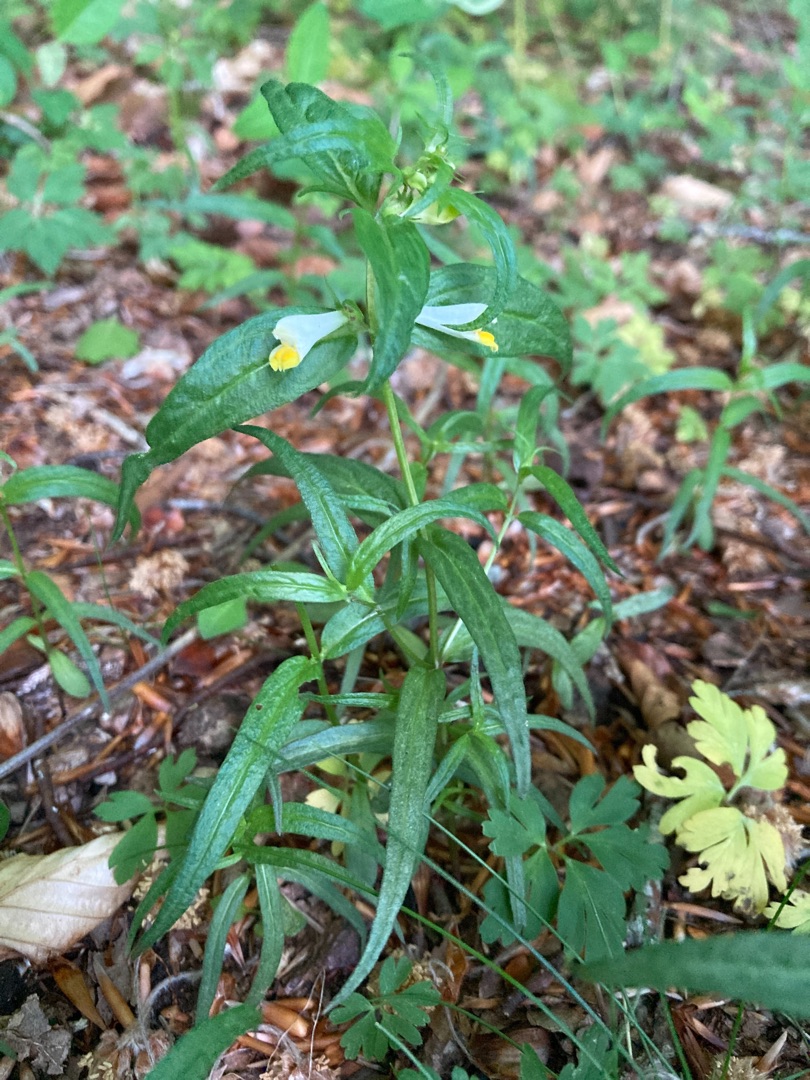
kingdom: Plantae
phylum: Tracheophyta
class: Magnoliopsida
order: Lamiales
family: Orobanchaceae
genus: Melampyrum
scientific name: Melampyrum pratense
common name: Almindelig kohvede
